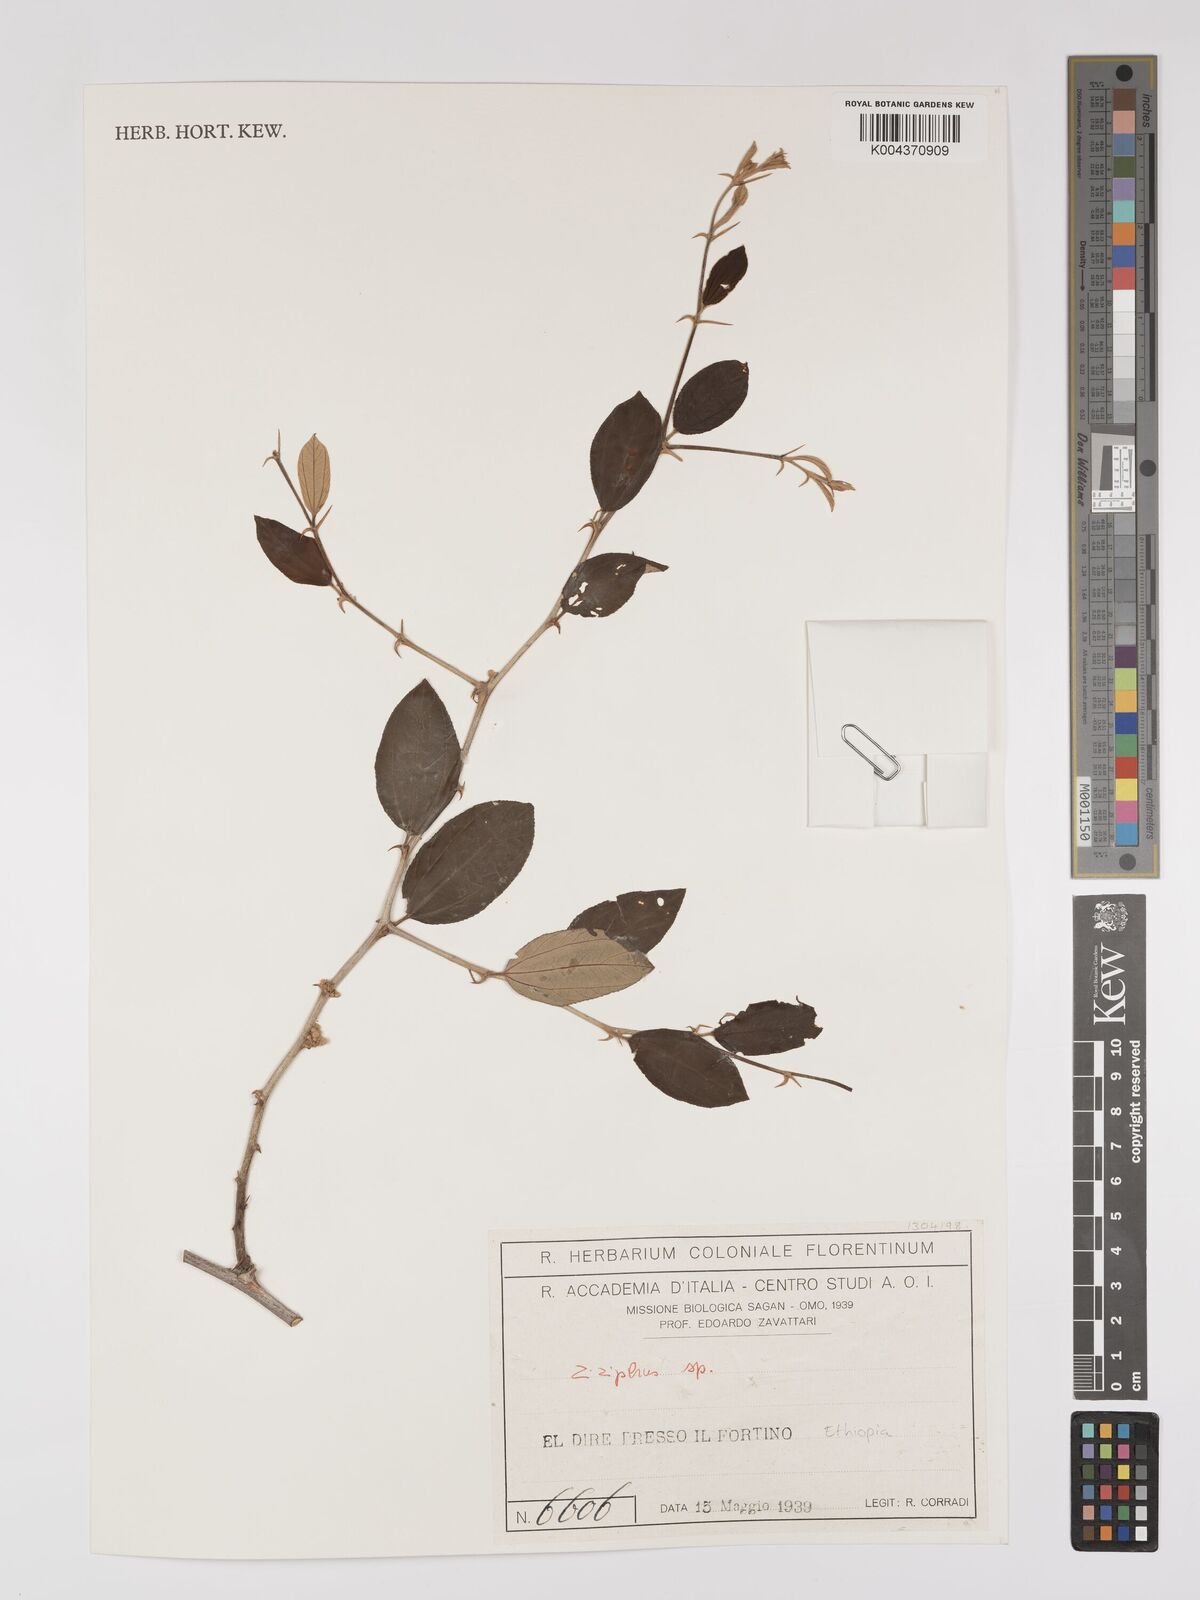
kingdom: Plantae
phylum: Tracheophyta
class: Magnoliopsida
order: Rosales
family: Rhamnaceae
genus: Ziziphus
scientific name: Ziziphus
